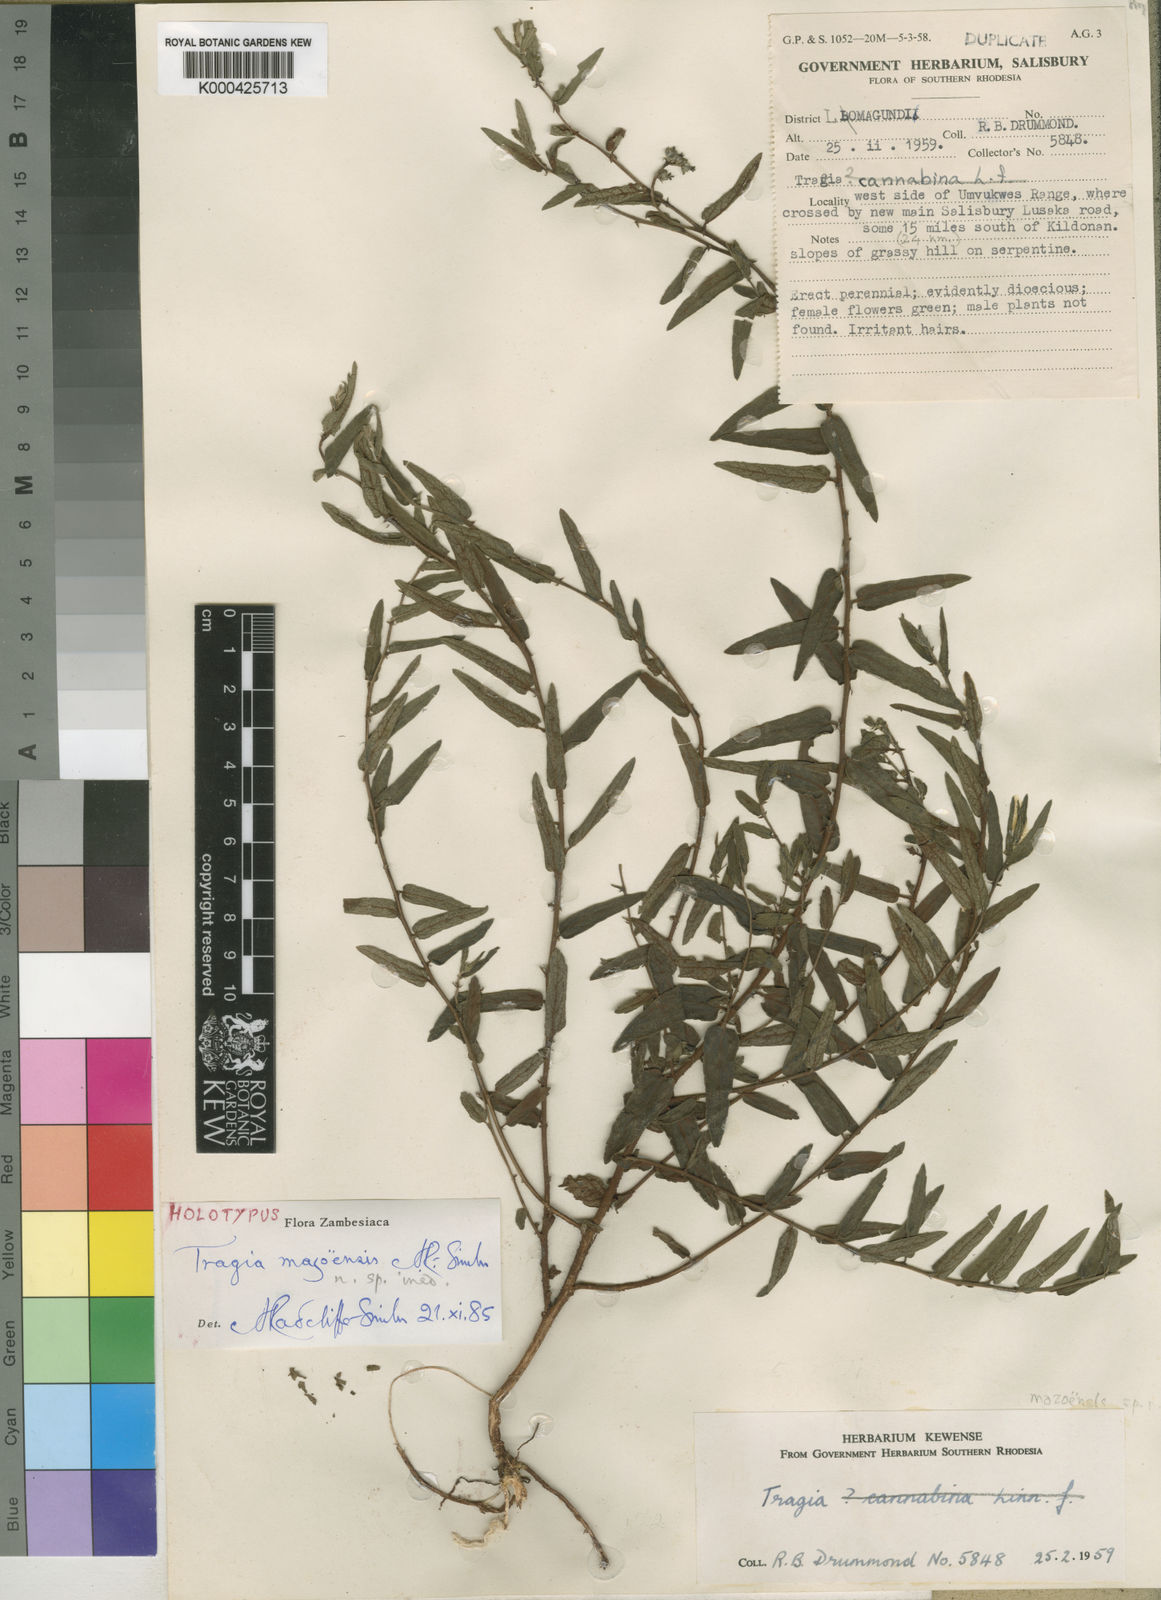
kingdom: Plantae
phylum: Tracheophyta
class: Magnoliopsida
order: Malpighiales
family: Euphorbiaceae
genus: Tragia
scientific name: Tragia mazoensis
